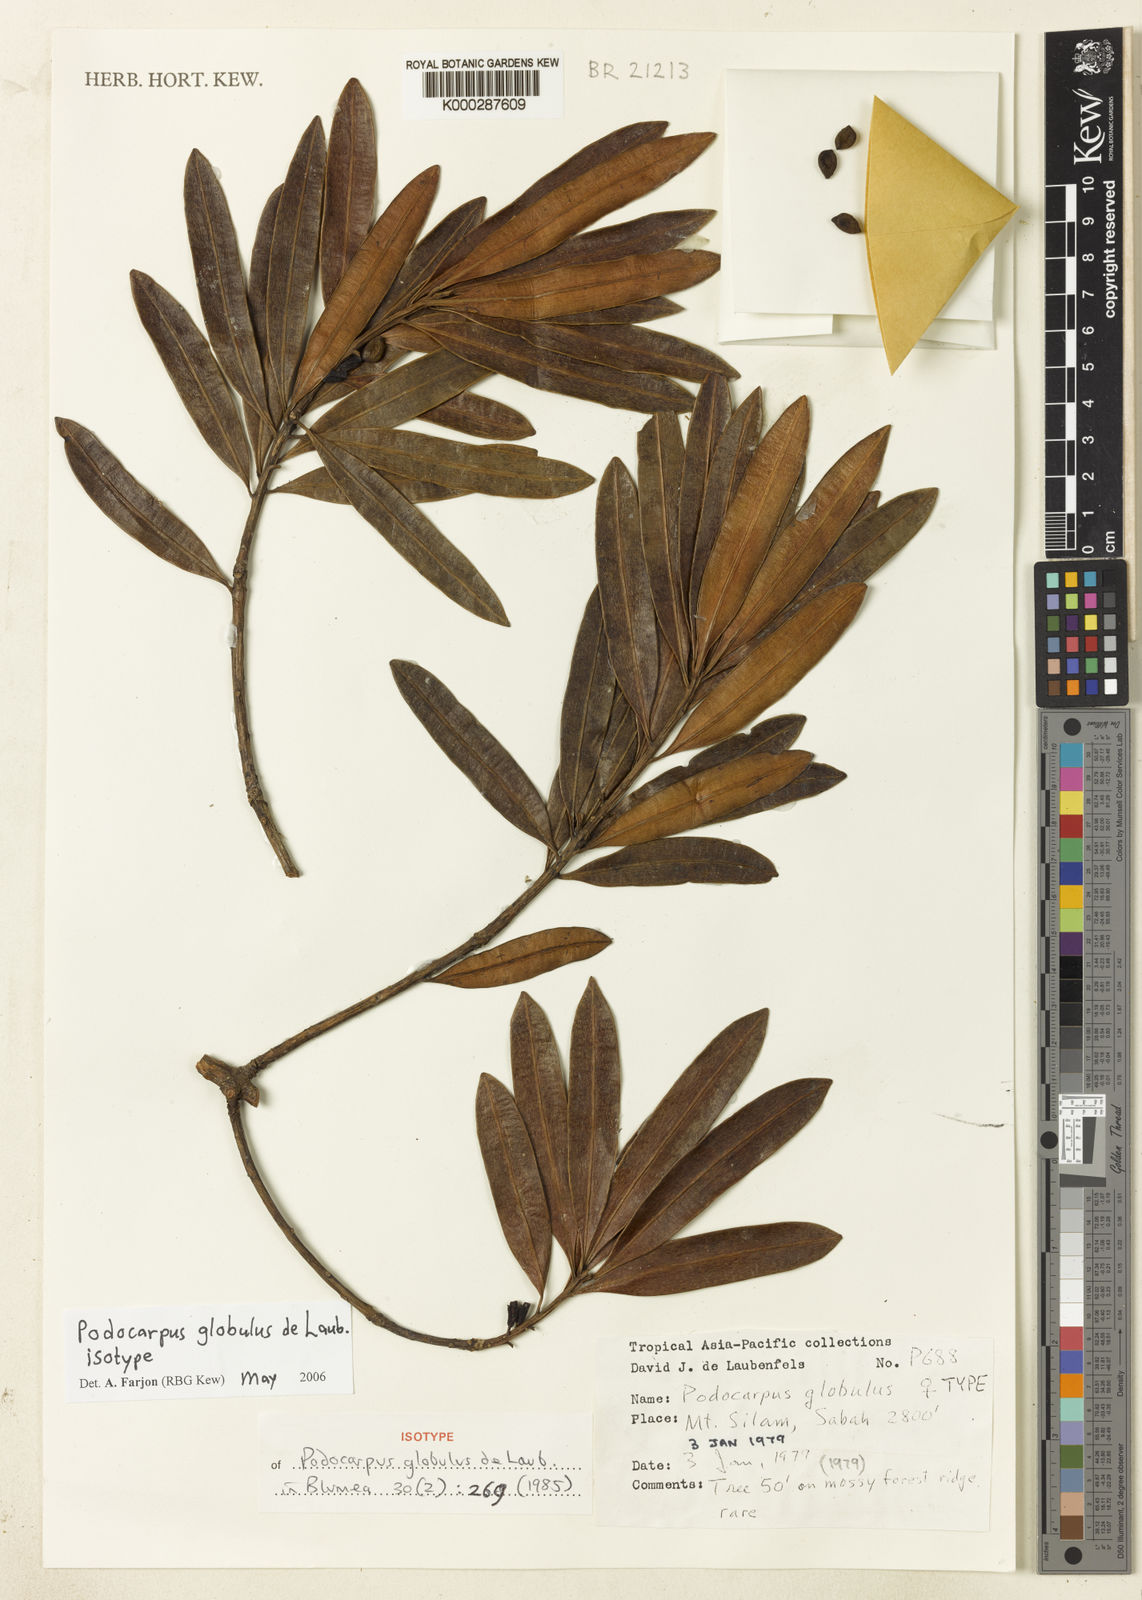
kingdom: Plantae
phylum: Tracheophyta
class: Pinopsida
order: Pinales
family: Podocarpaceae
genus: Podocarpus
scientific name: Podocarpus globulus
